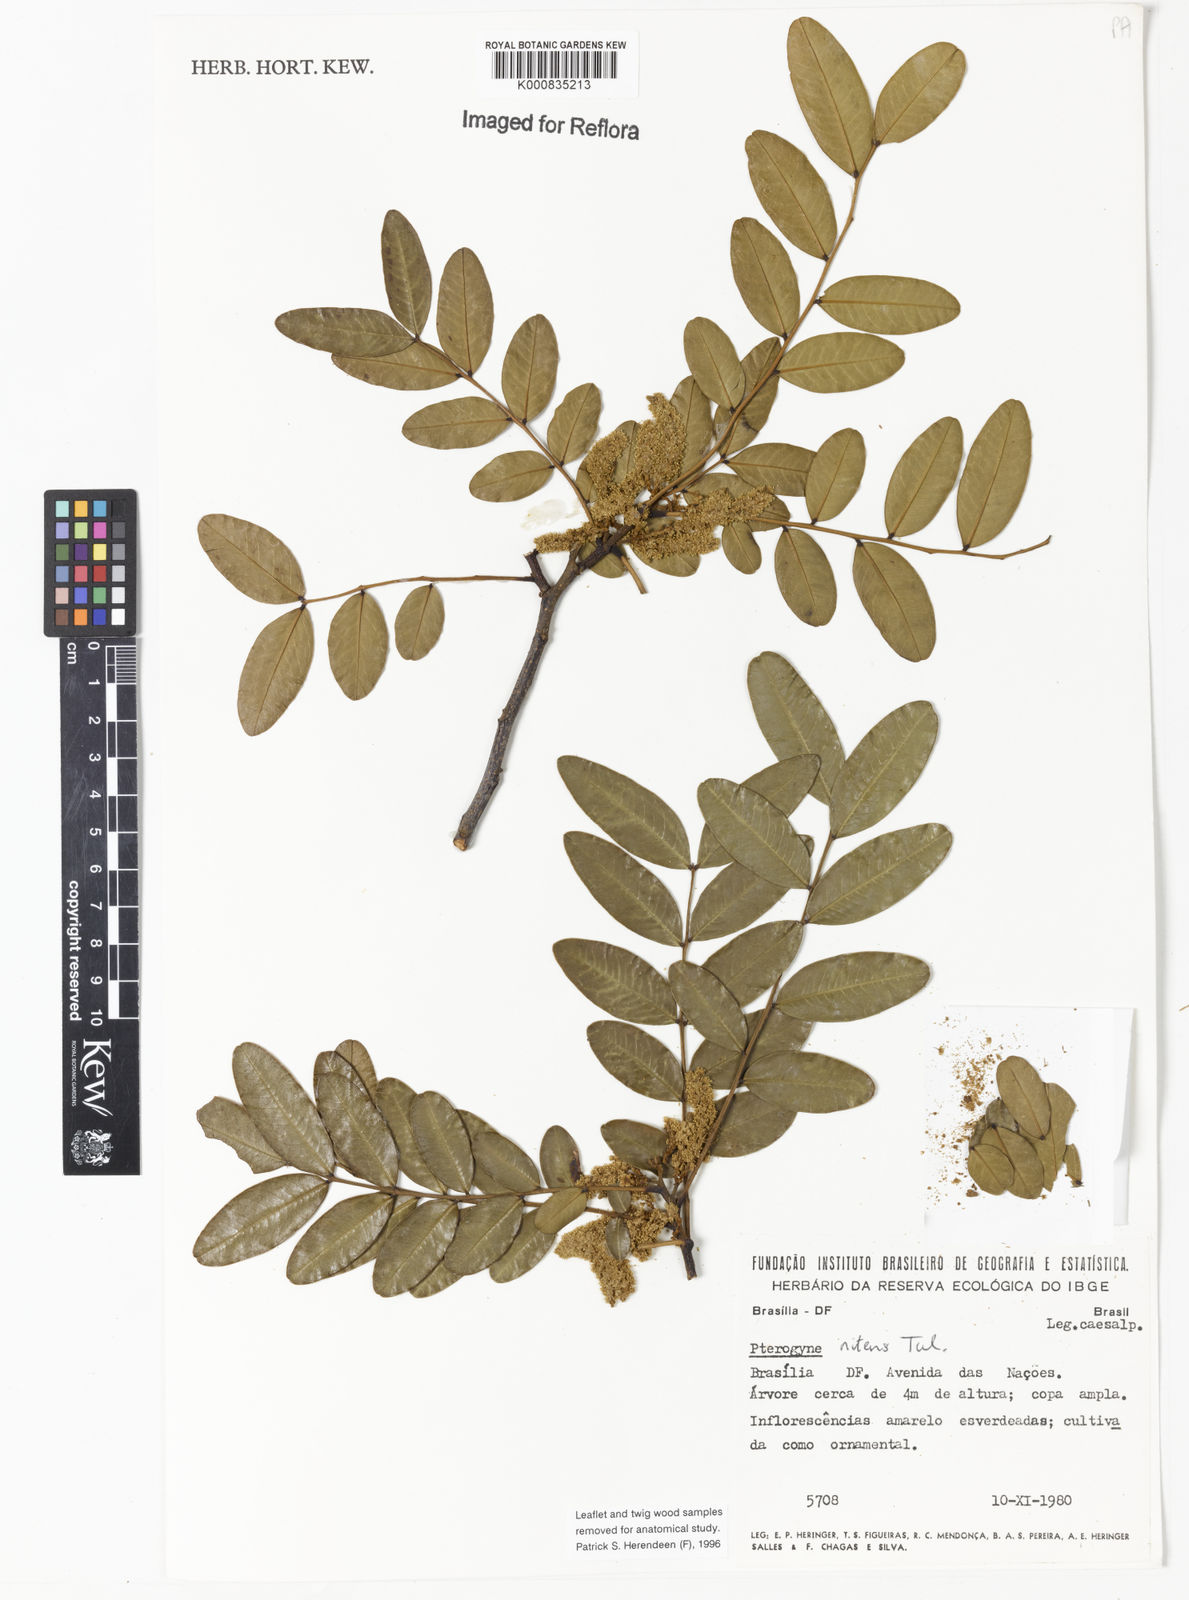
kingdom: Plantae
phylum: Tracheophyta
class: Magnoliopsida
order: Fabales
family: Fabaceae
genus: Pterogyne
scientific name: Pterogyne nitens
